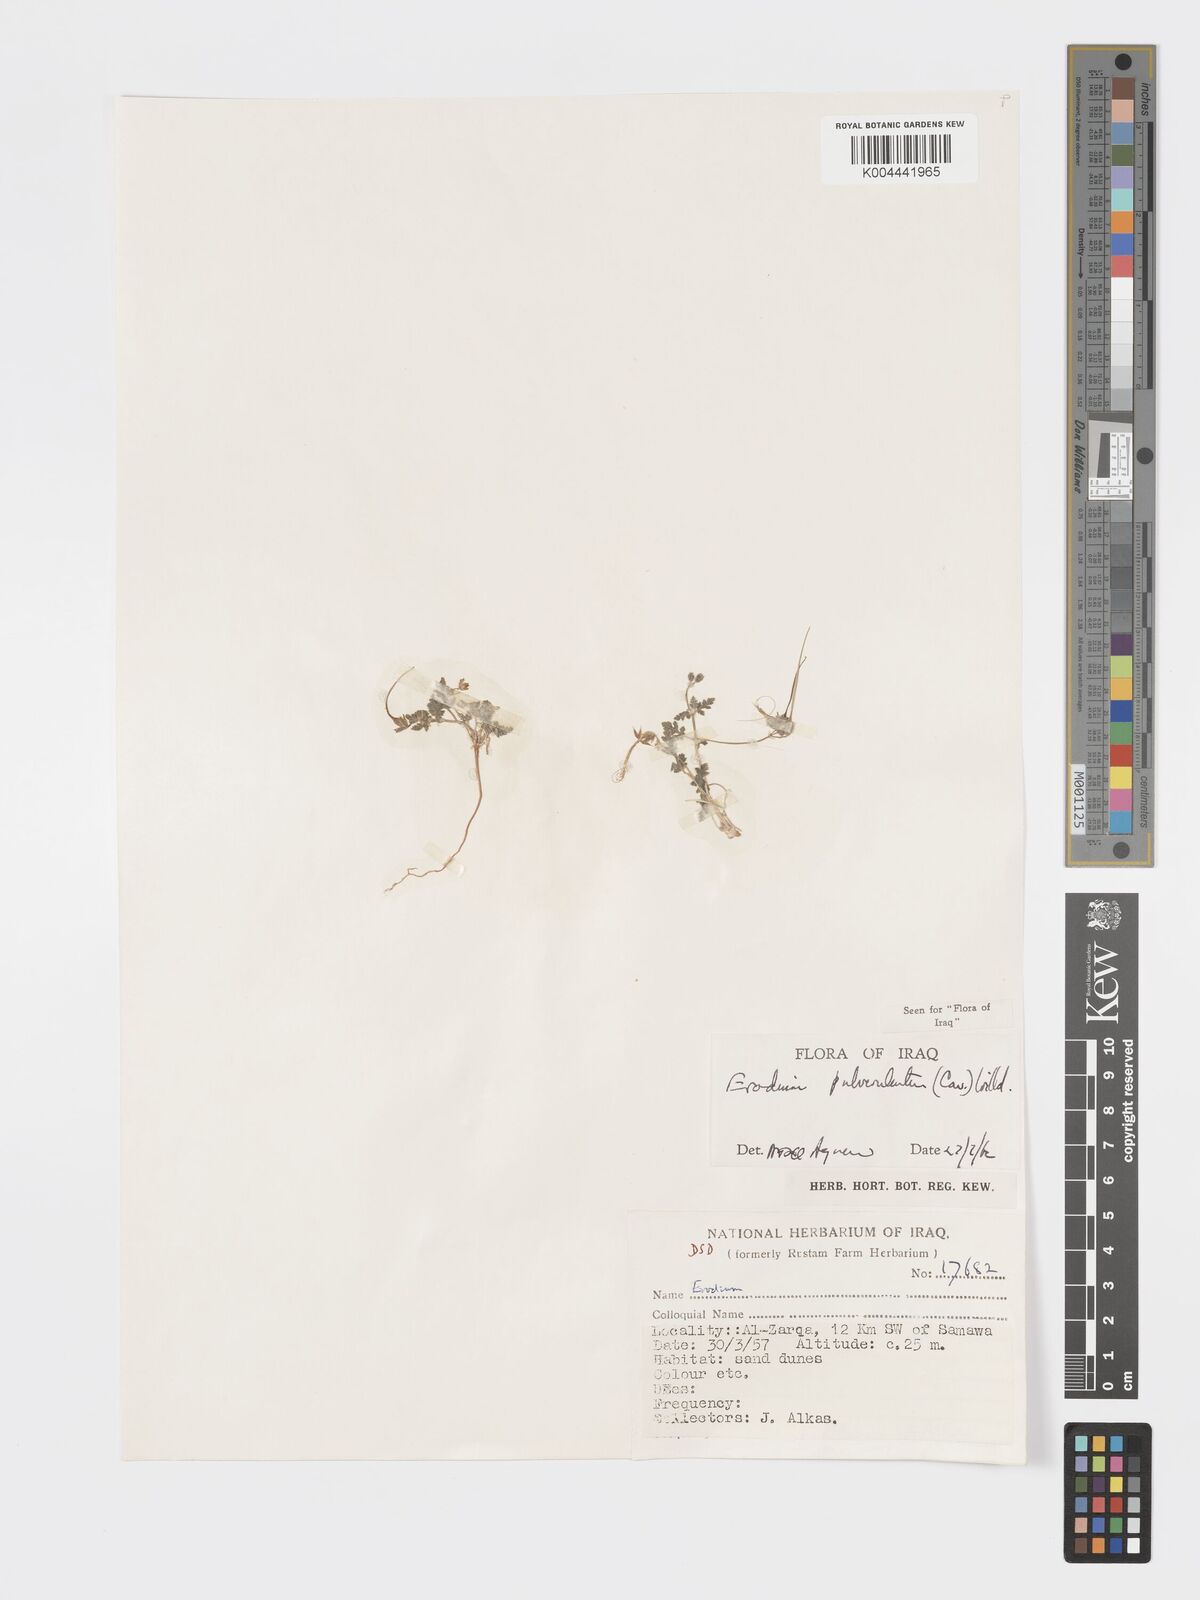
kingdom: Plantae
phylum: Tracheophyta
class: Magnoliopsida
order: Geraniales
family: Geraniaceae
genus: Erodium
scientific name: Erodium laciniatum
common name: Cutleaf stork's bill
